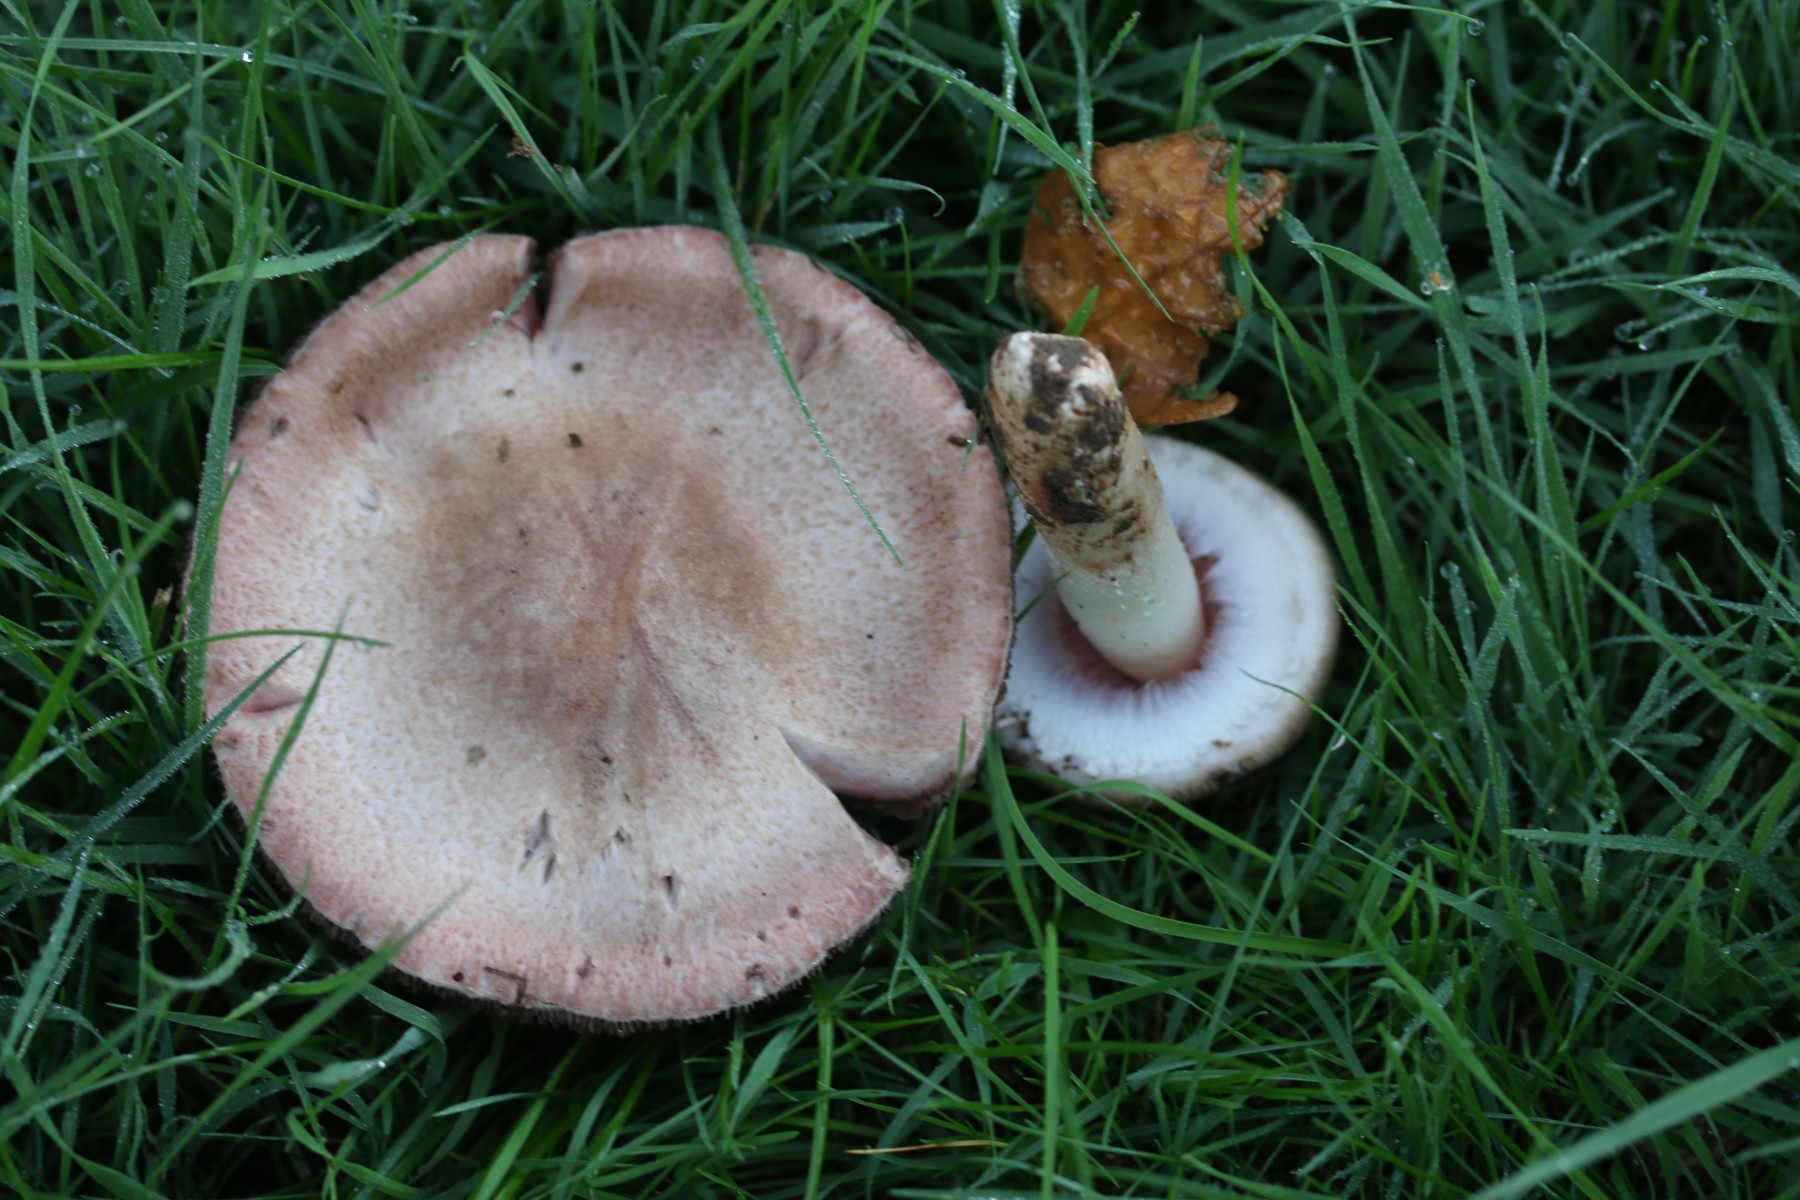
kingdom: Fungi
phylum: Basidiomycota
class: Agaricomycetes
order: Agaricales
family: Agaricaceae
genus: Agaricus
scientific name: Agaricus langei
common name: stor blod-champignon
